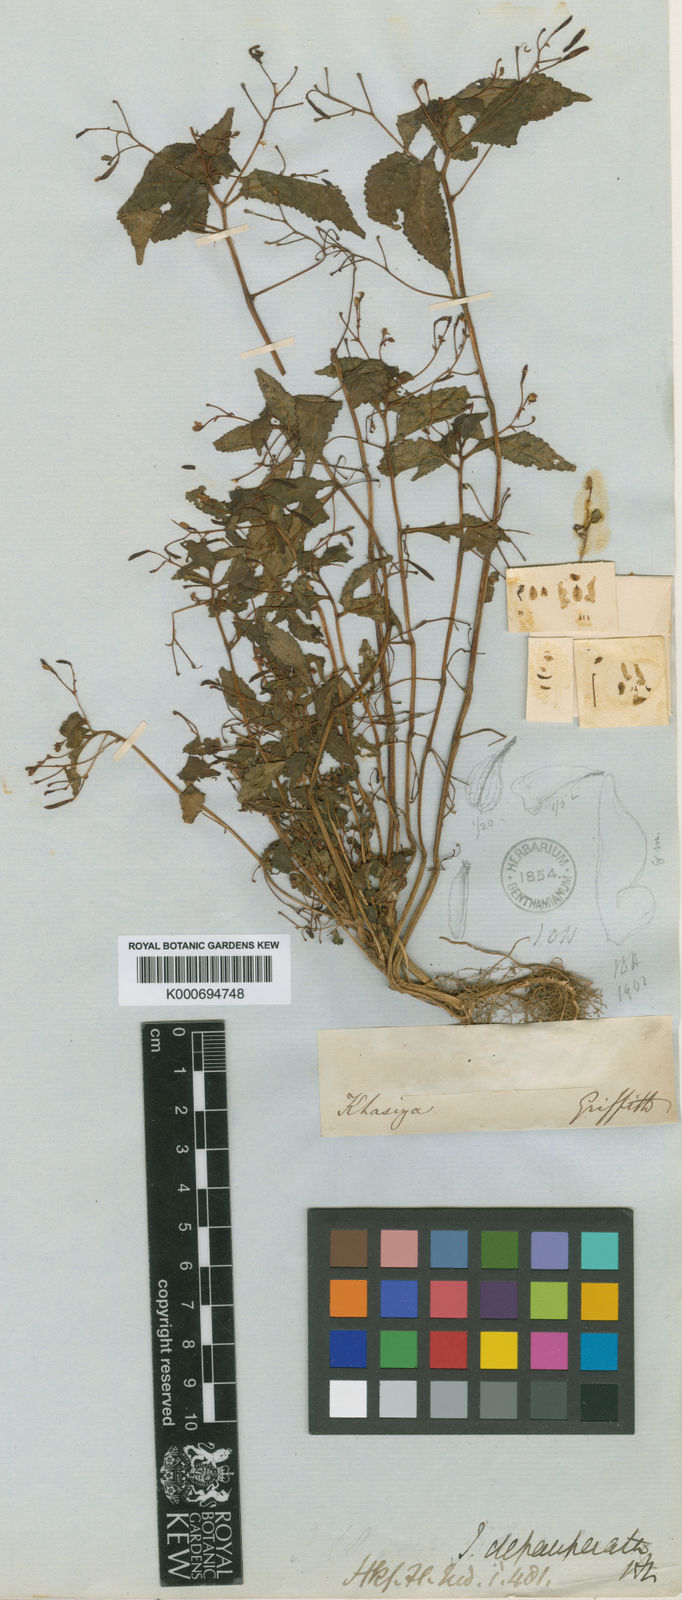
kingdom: Plantae
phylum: Tracheophyta
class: Magnoliopsida
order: Ericales
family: Balsaminaceae
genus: Impatiens
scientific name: Impatiens depauperata
